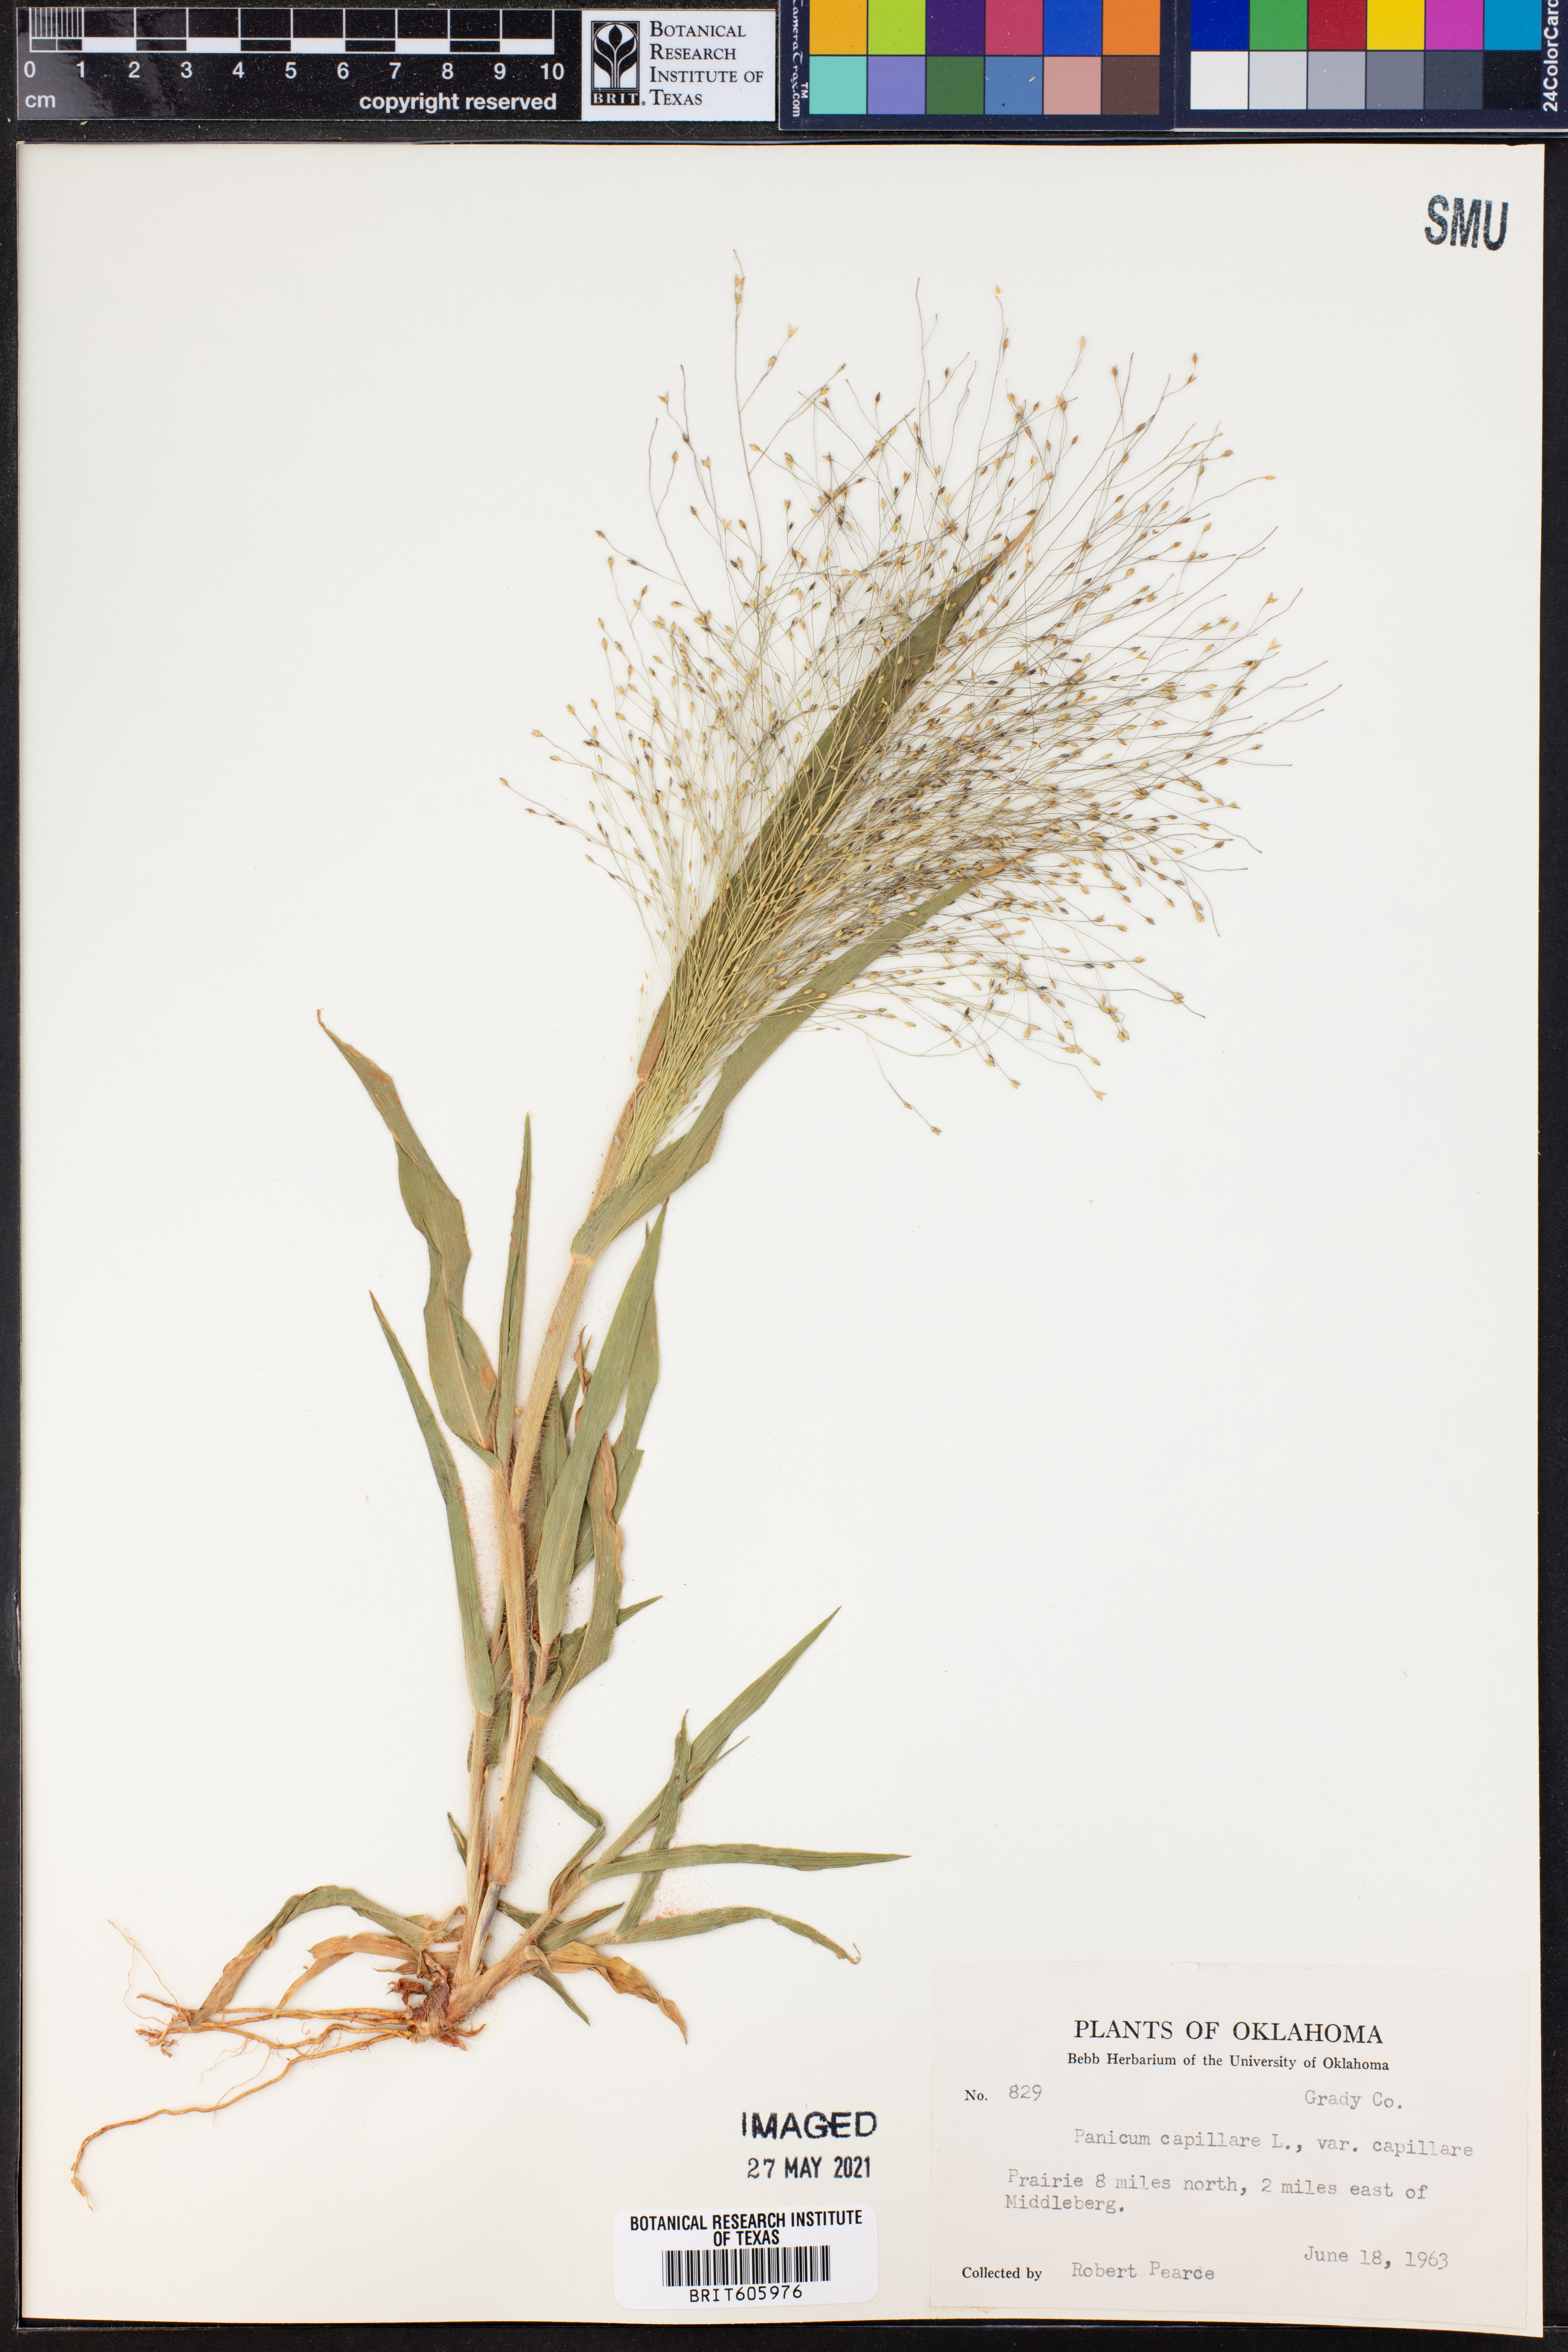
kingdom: Plantae
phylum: Tracheophyta
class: Liliopsida
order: Poales
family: Poaceae
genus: Panicum
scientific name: Panicum capillare
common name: Witch-grass
